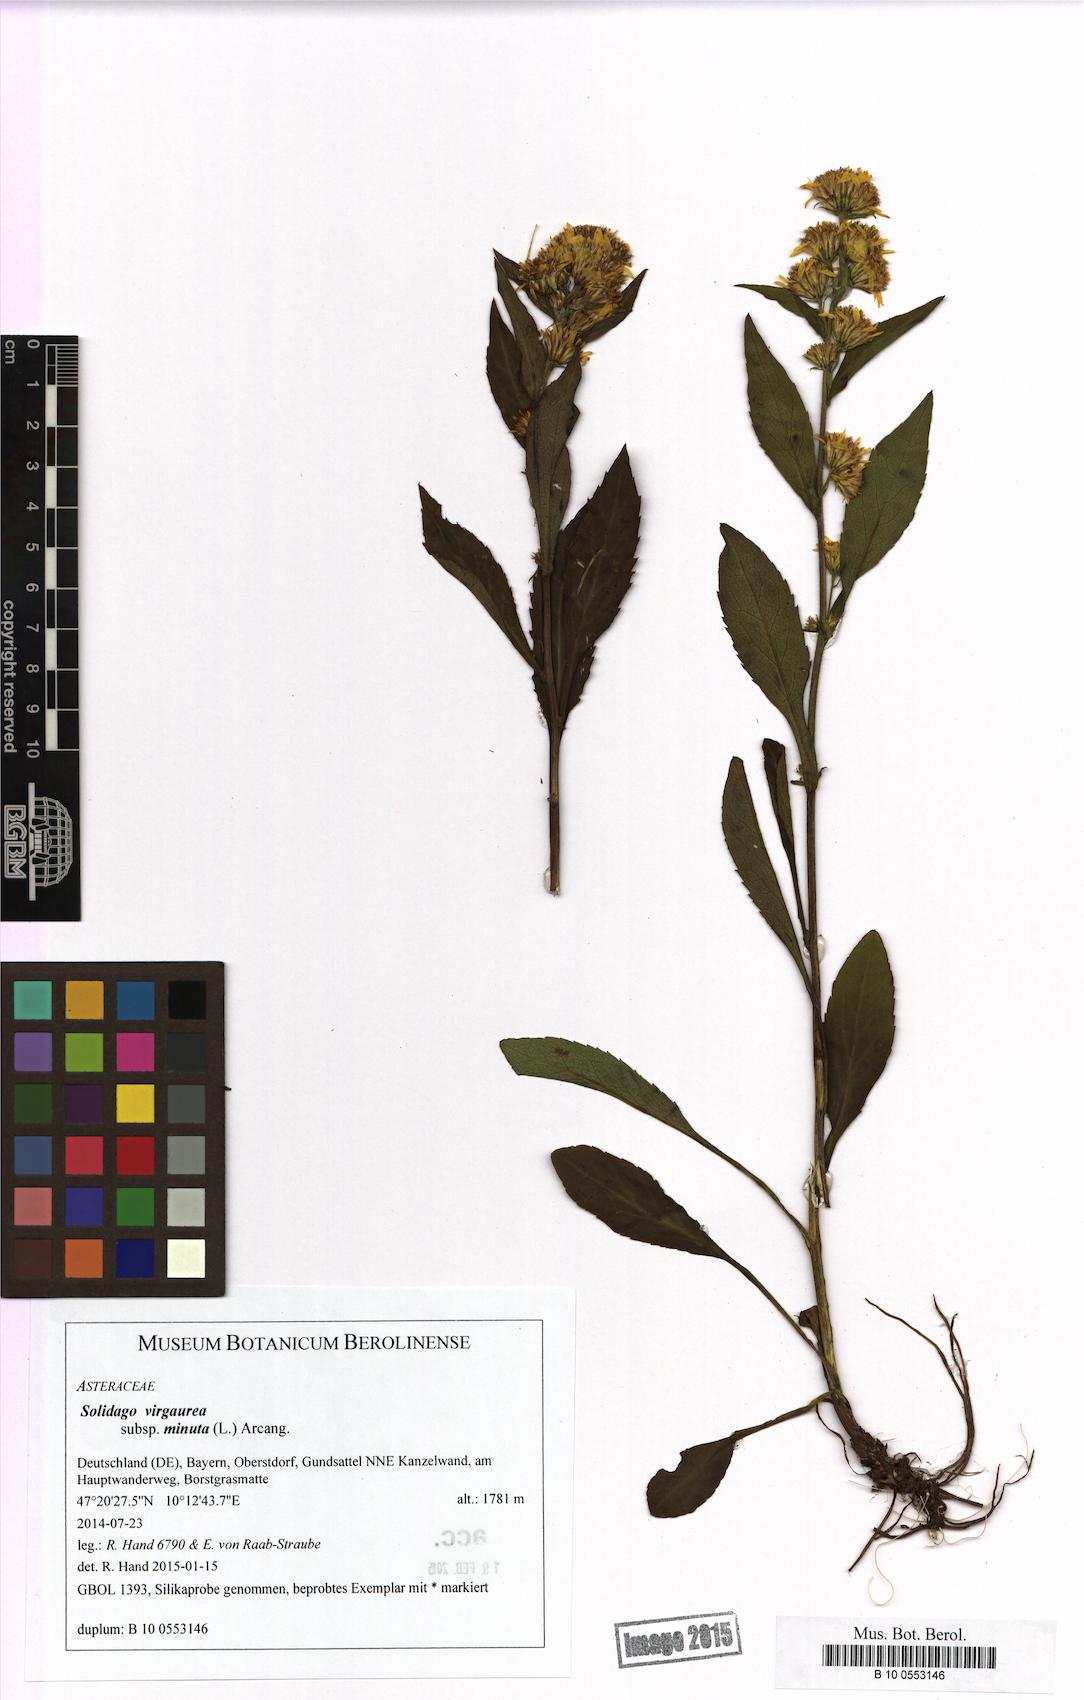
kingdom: Plantae
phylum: Tracheophyta
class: Magnoliopsida
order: Asterales
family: Asteraceae
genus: Solidago
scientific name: Solidago virgaurea
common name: Goldenrod
